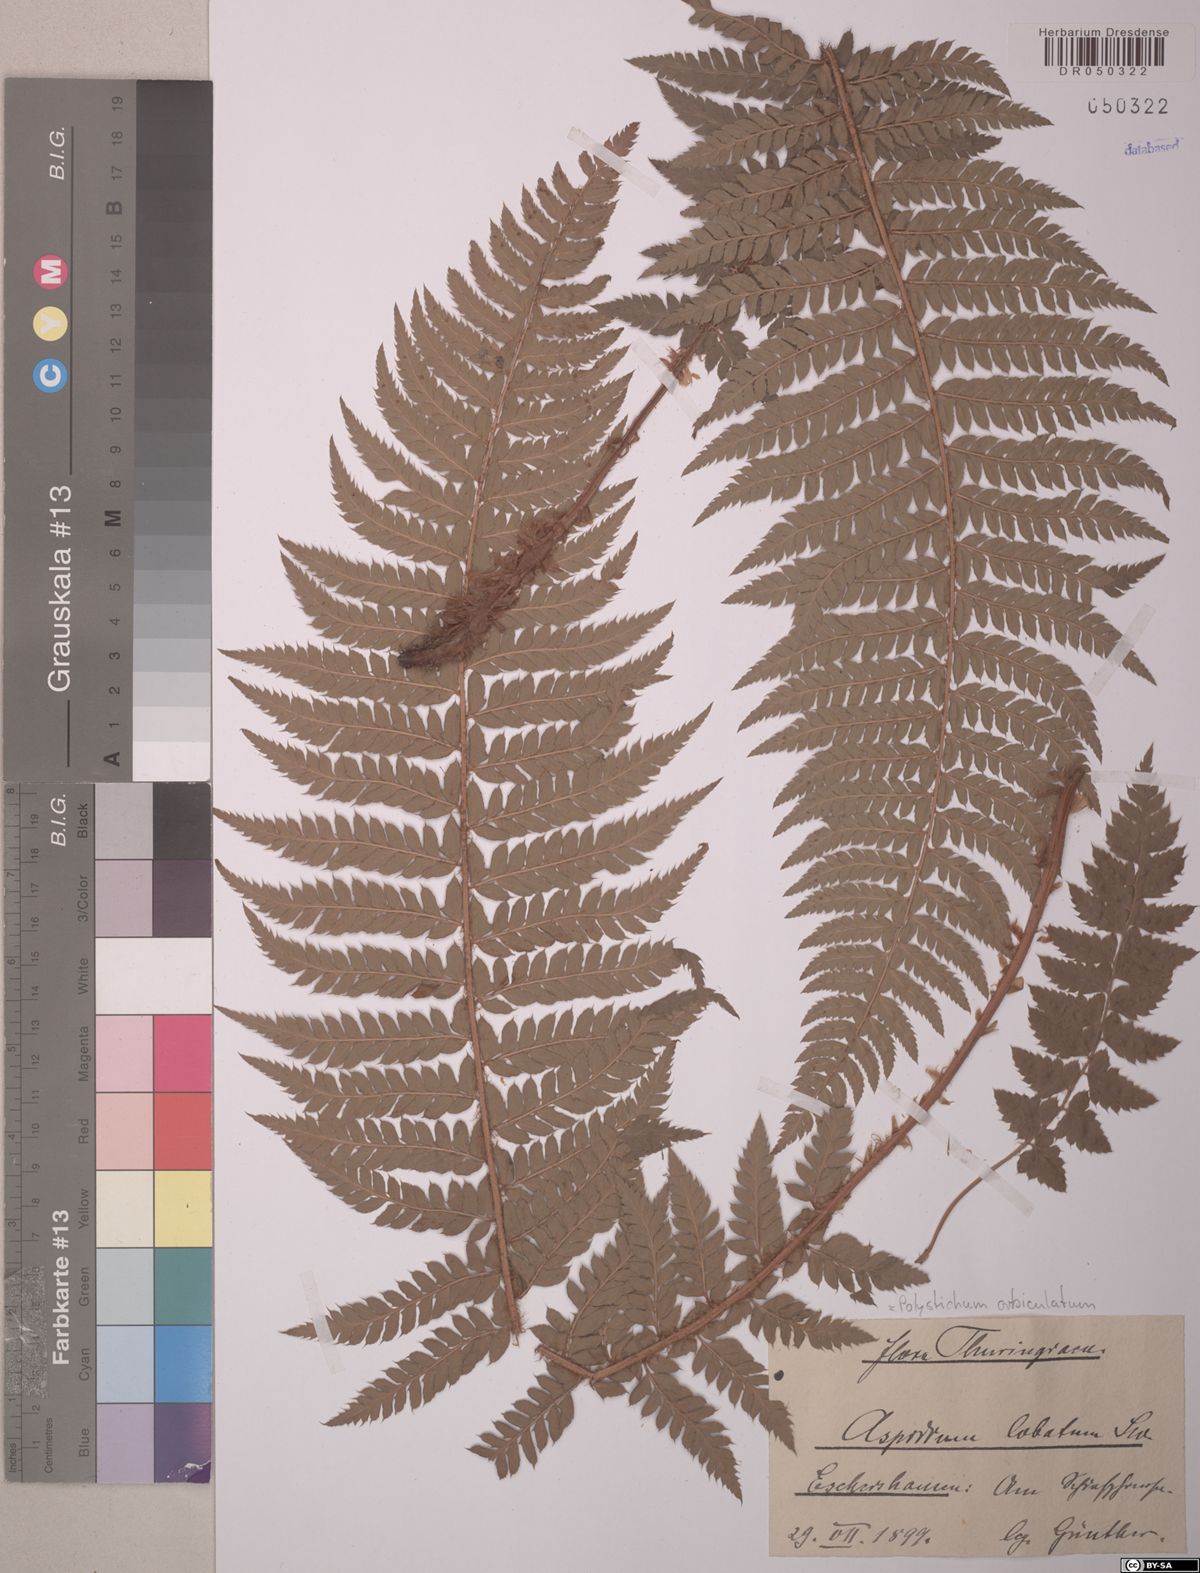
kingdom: Plantae
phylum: Tracheophyta
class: Polypodiopsida
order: Polypodiales
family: Dryopteridaceae
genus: Polystichum
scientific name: Polystichum aculeatum
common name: Hard shield-fern
